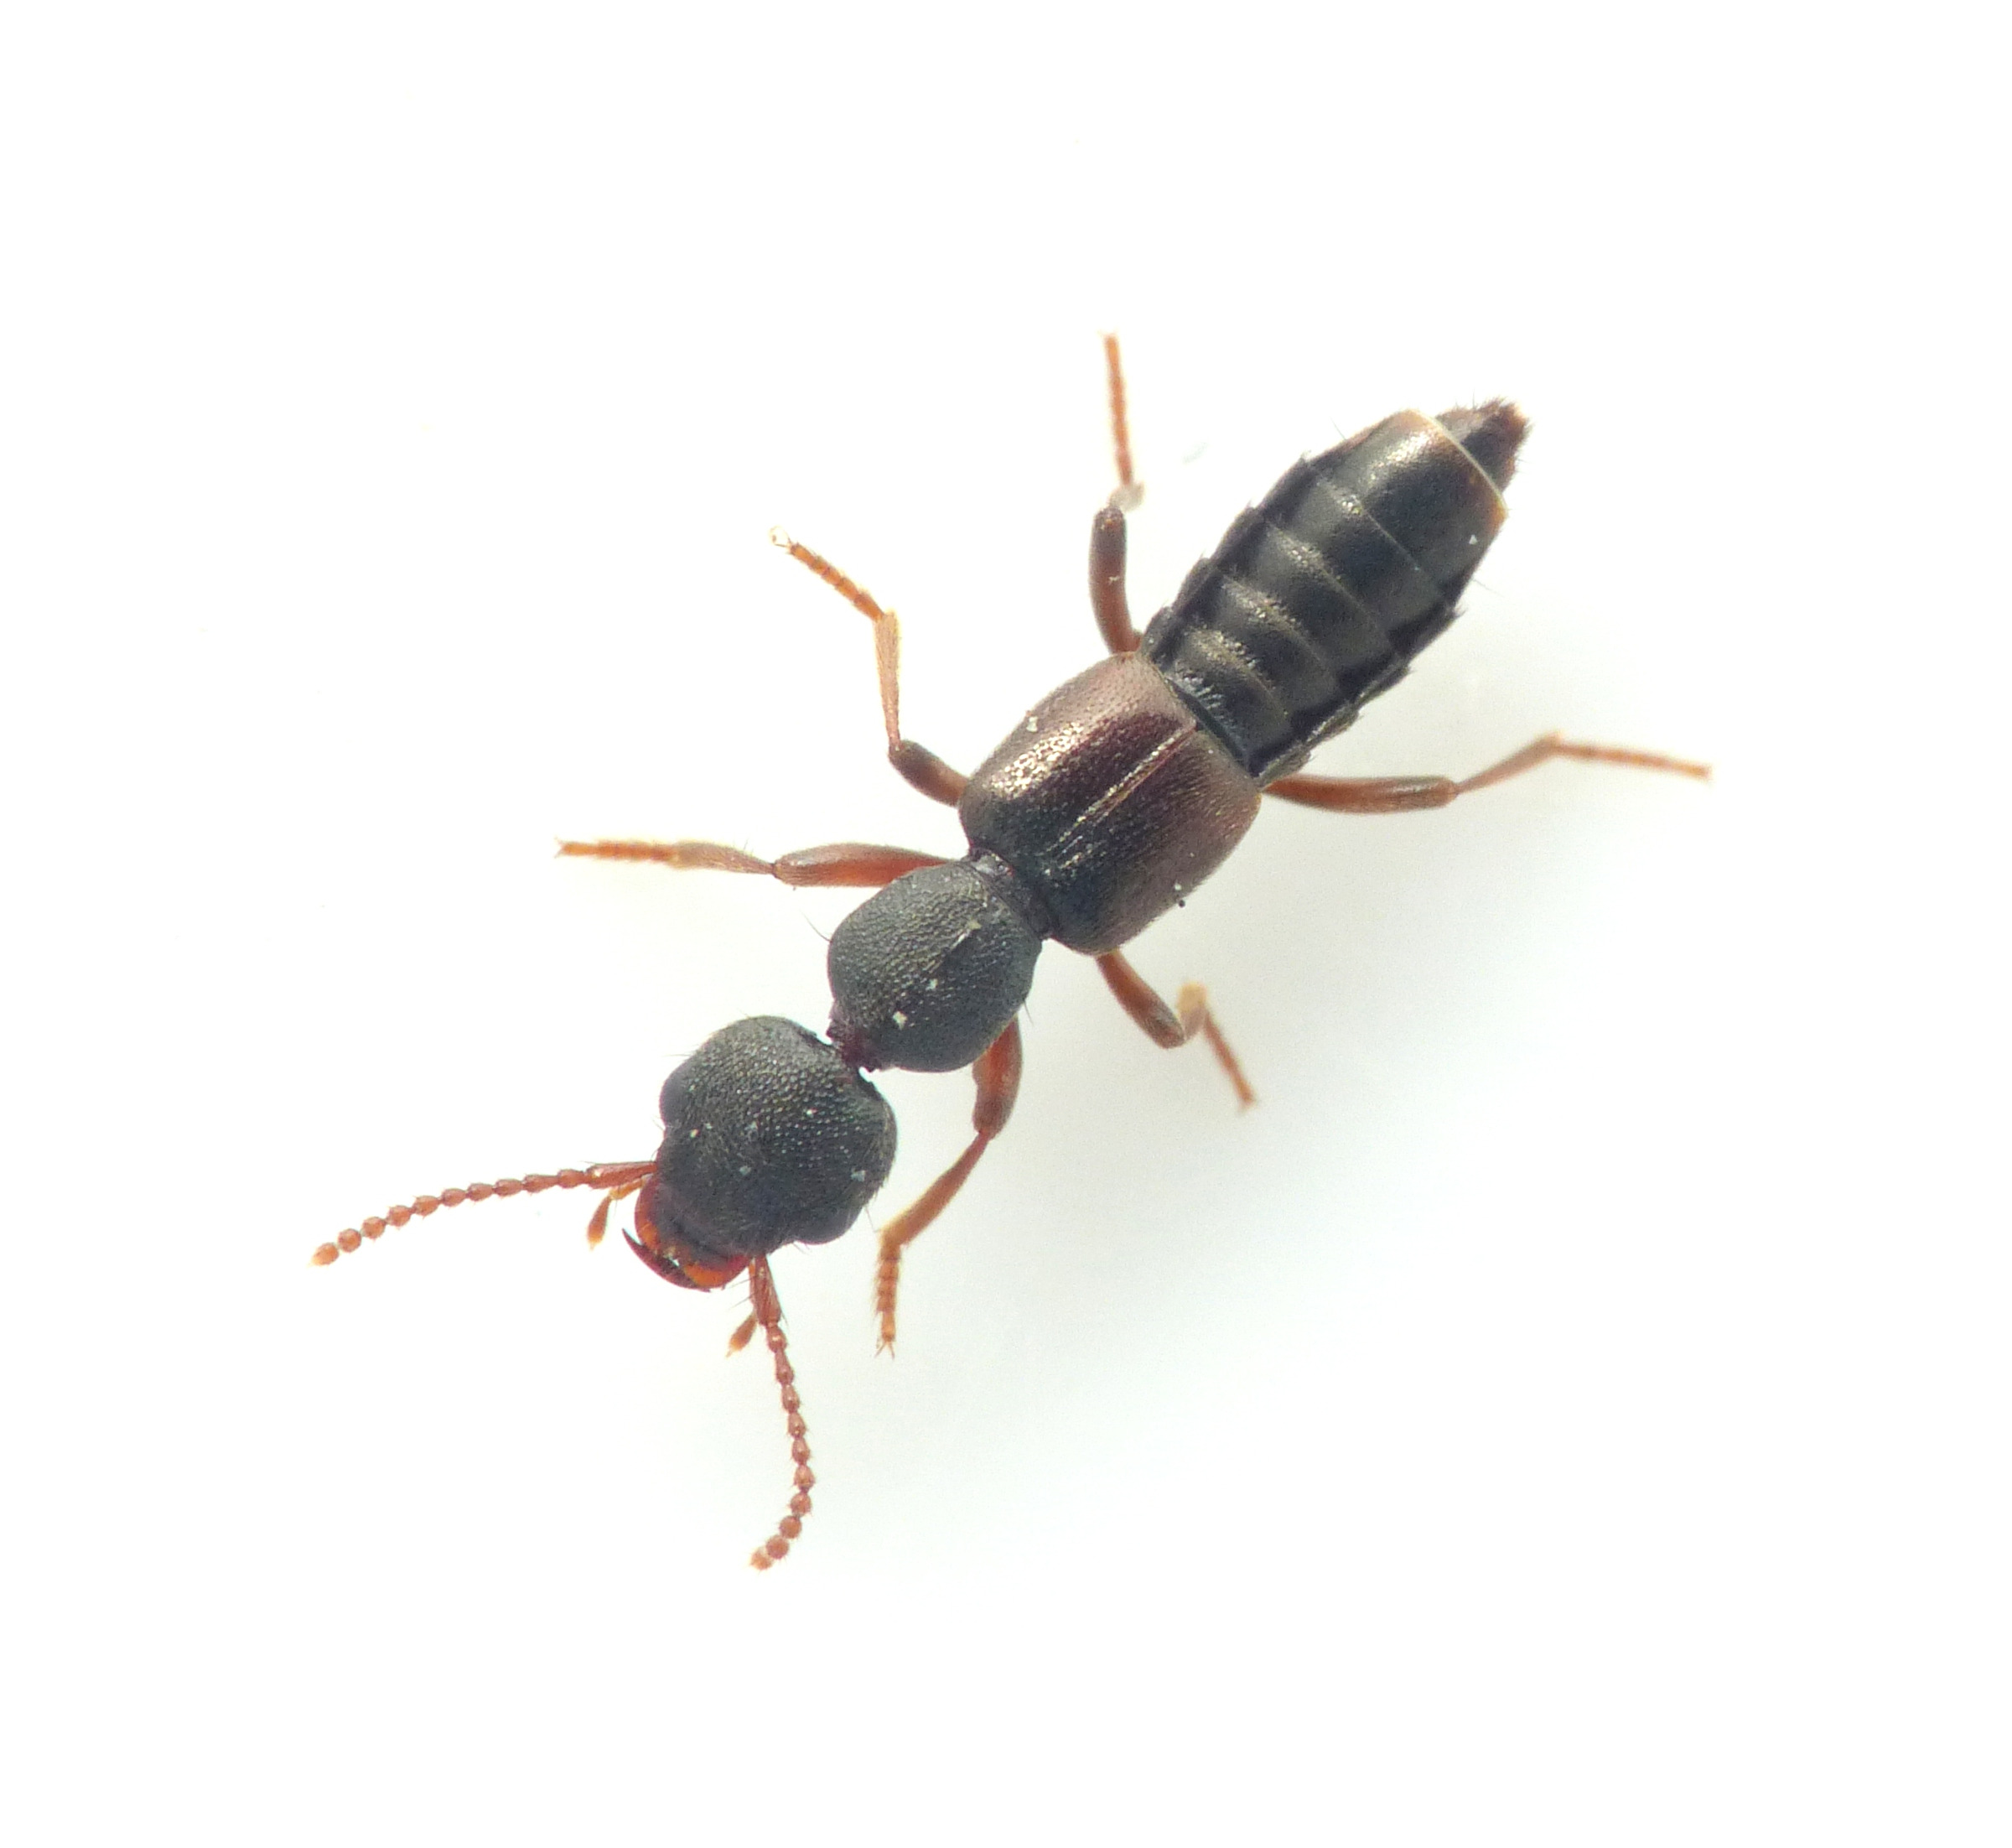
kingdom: Animalia
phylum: Arthropoda
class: Insecta
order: Coleoptera
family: Staphylinidae
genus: Rugilus
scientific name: Rugilus rufipes
